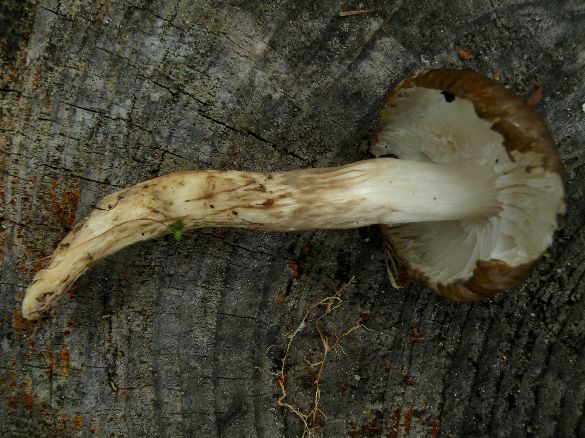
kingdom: Fungi
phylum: Basidiomycota
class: Agaricomycetes
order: Agaricales
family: Hygrophoraceae
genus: Hygrophorus
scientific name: Hygrophorus olivaceoalbus
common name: hvidbrun sneglehat
